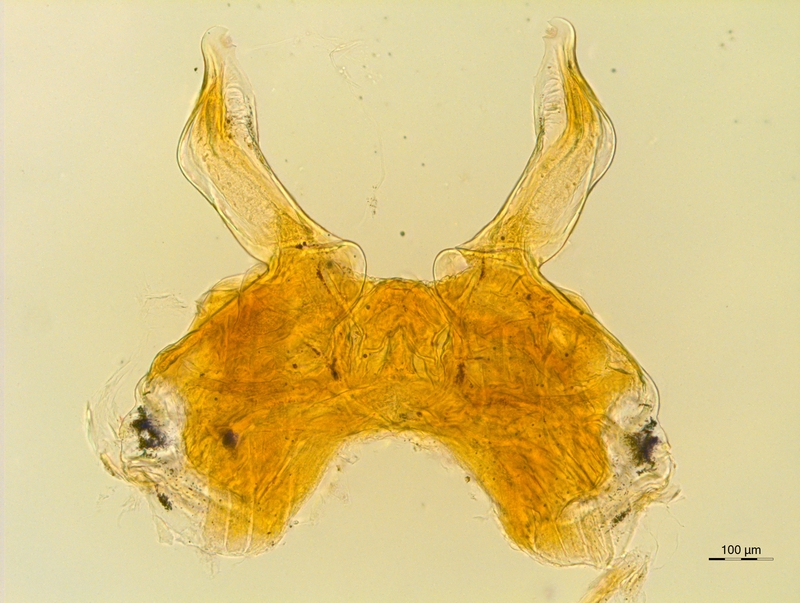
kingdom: Animalia
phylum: Arthropoda
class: Diplopoda
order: Chordeumatida
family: Attemsiidae
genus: Schubartia
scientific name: Schubartia lohmanderi
